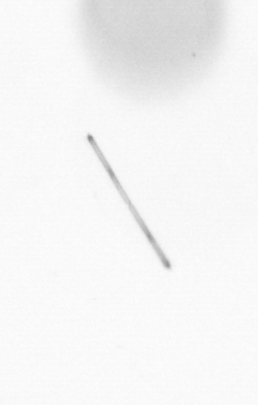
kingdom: Chromista
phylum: Ochrophyta
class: Bacillariophyceae
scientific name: Bacillariophyceae
